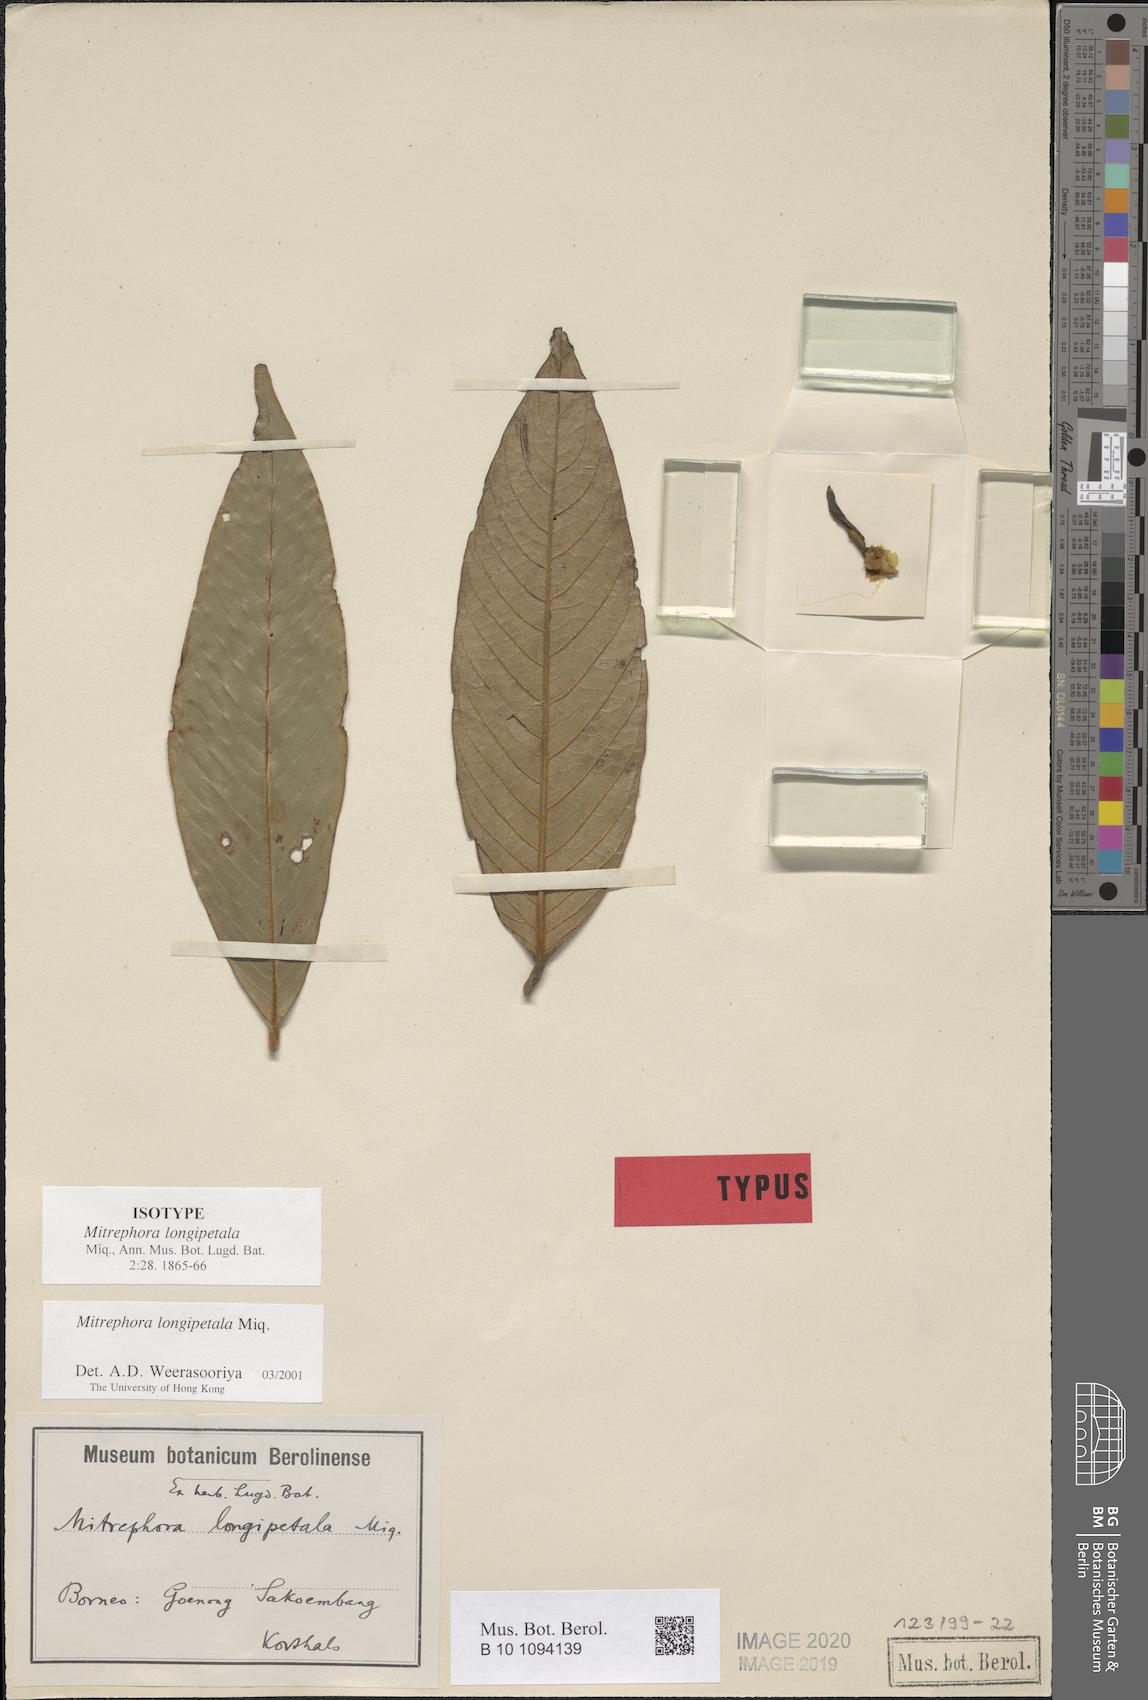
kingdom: Plantae
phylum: Tracheophyta
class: Magnoliopsida
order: Magnoliales
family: Annonaceae
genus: Mitrephora
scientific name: Mitrephora longipetala
